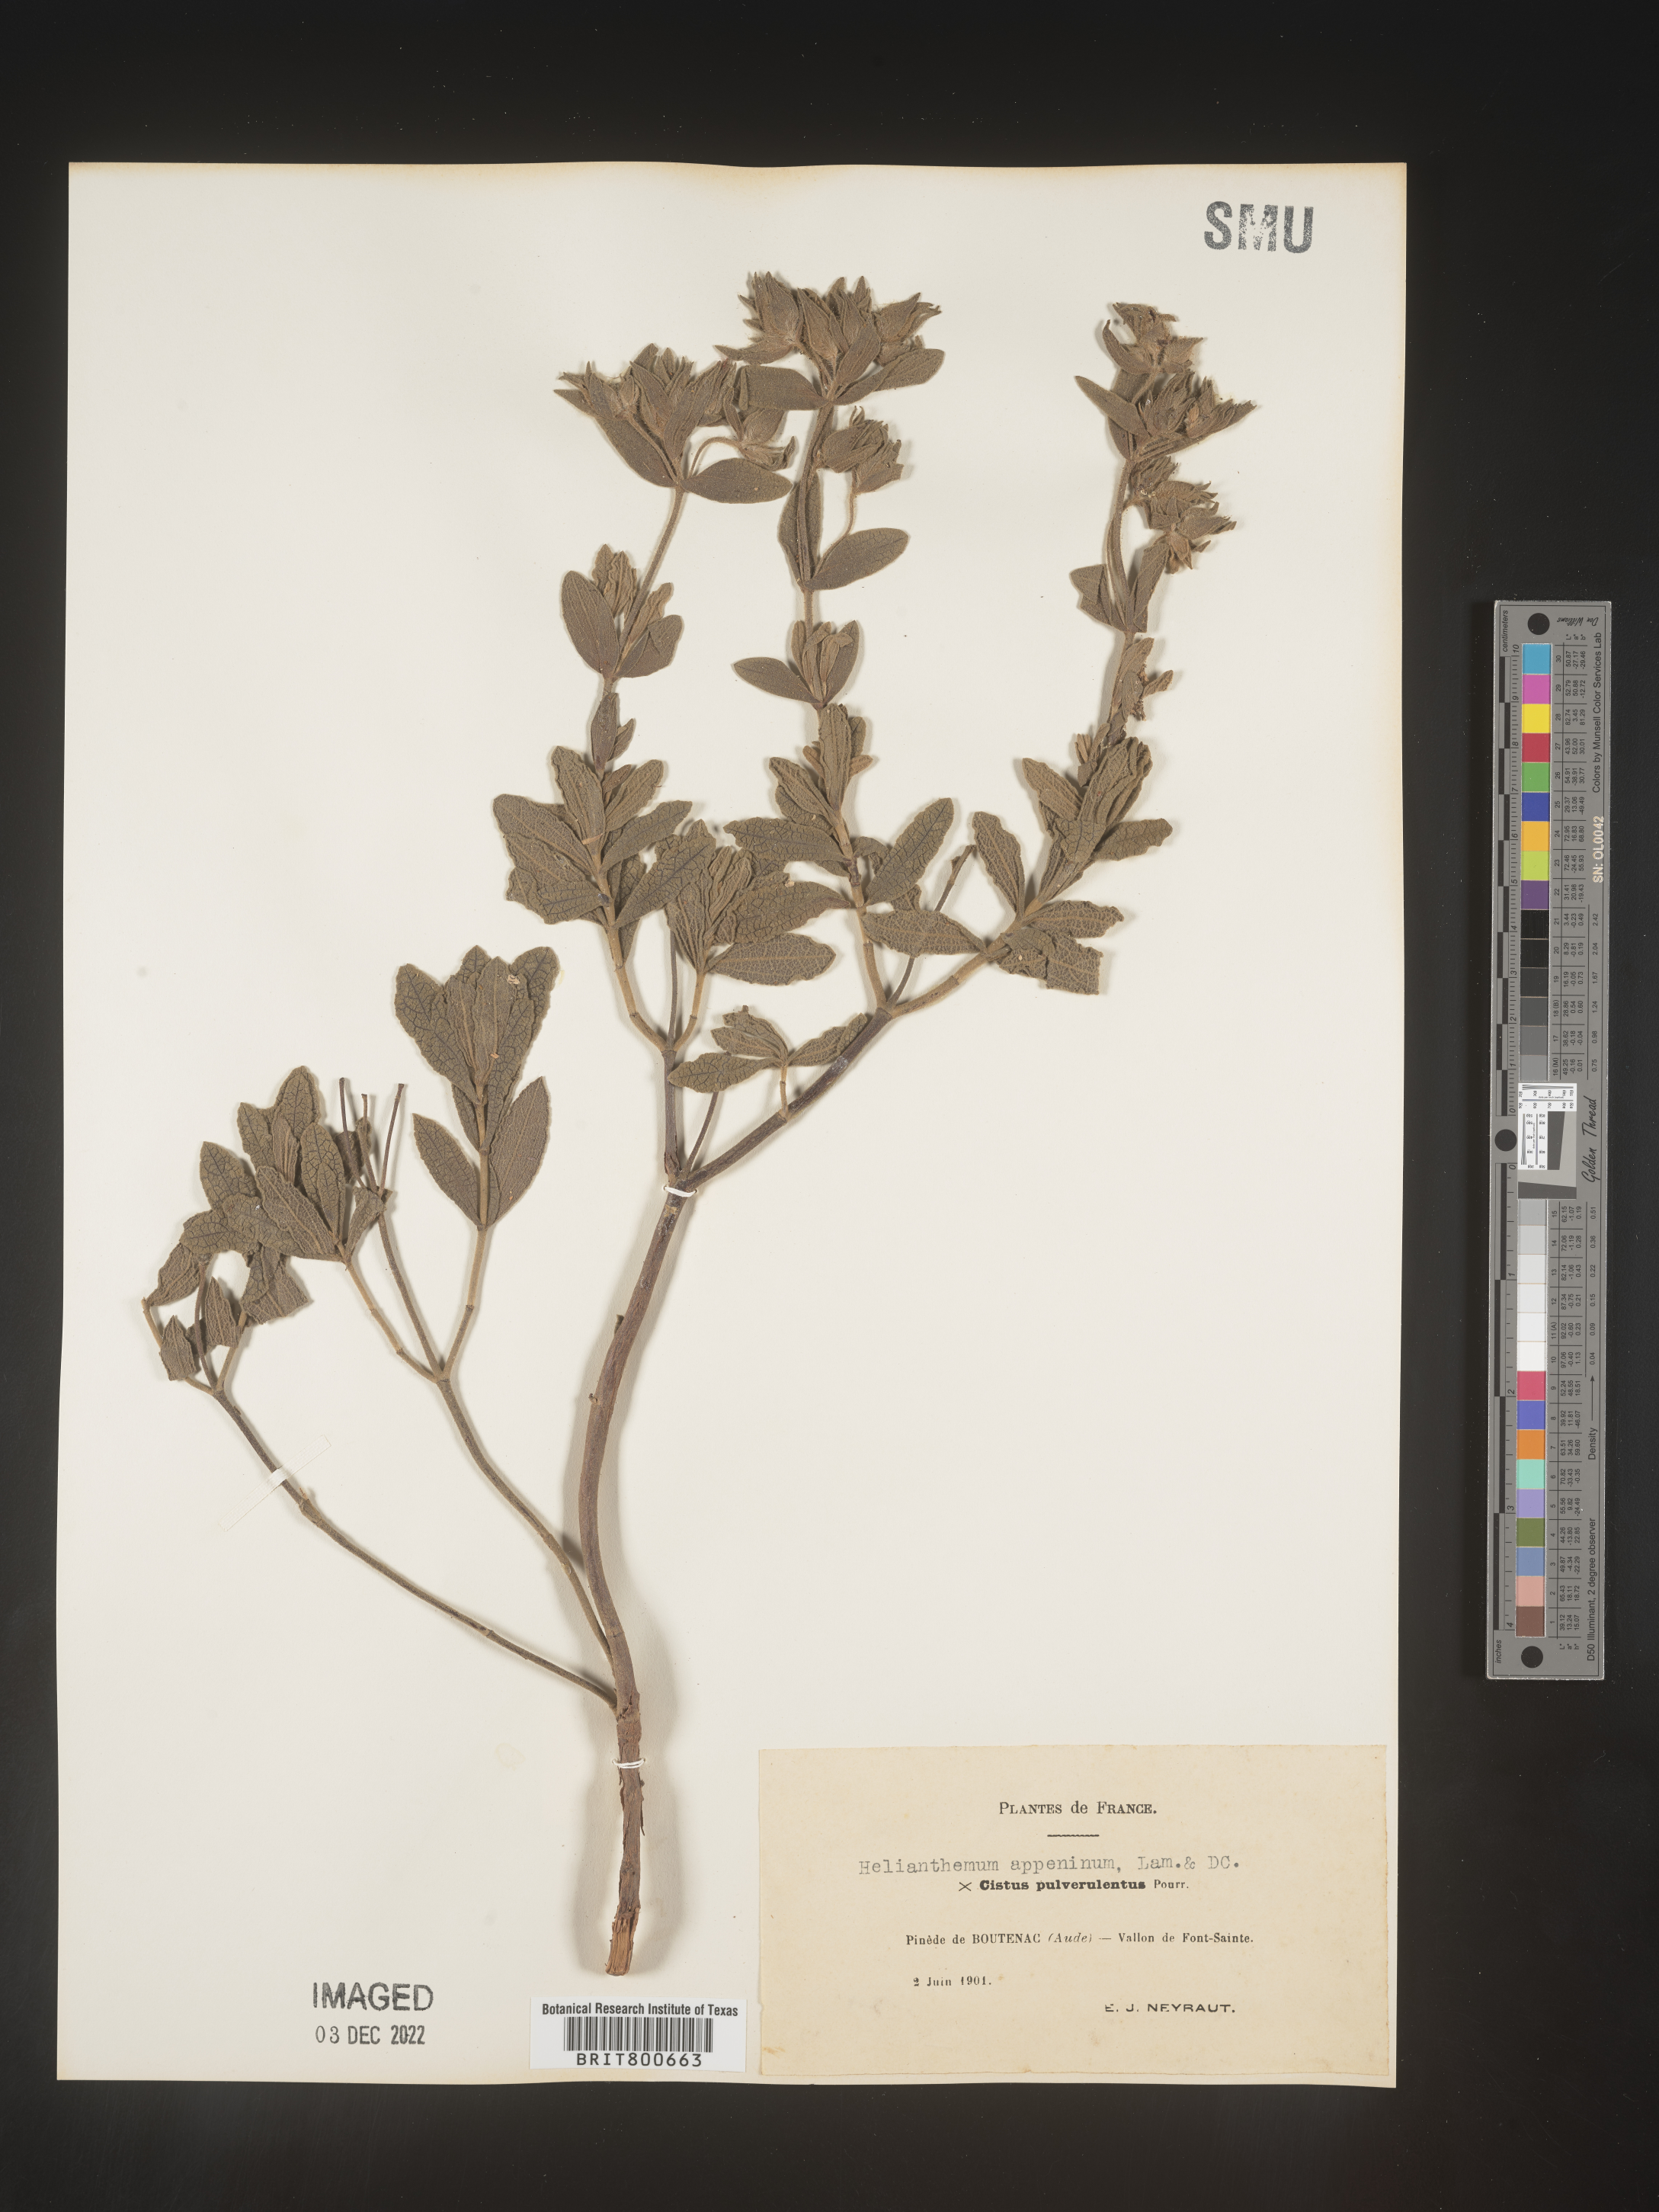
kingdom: Plantae
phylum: Tracheophyta
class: Magnoliopsida
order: Malvales
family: Cistaceae
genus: Helianthemum
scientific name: Helianthemum
